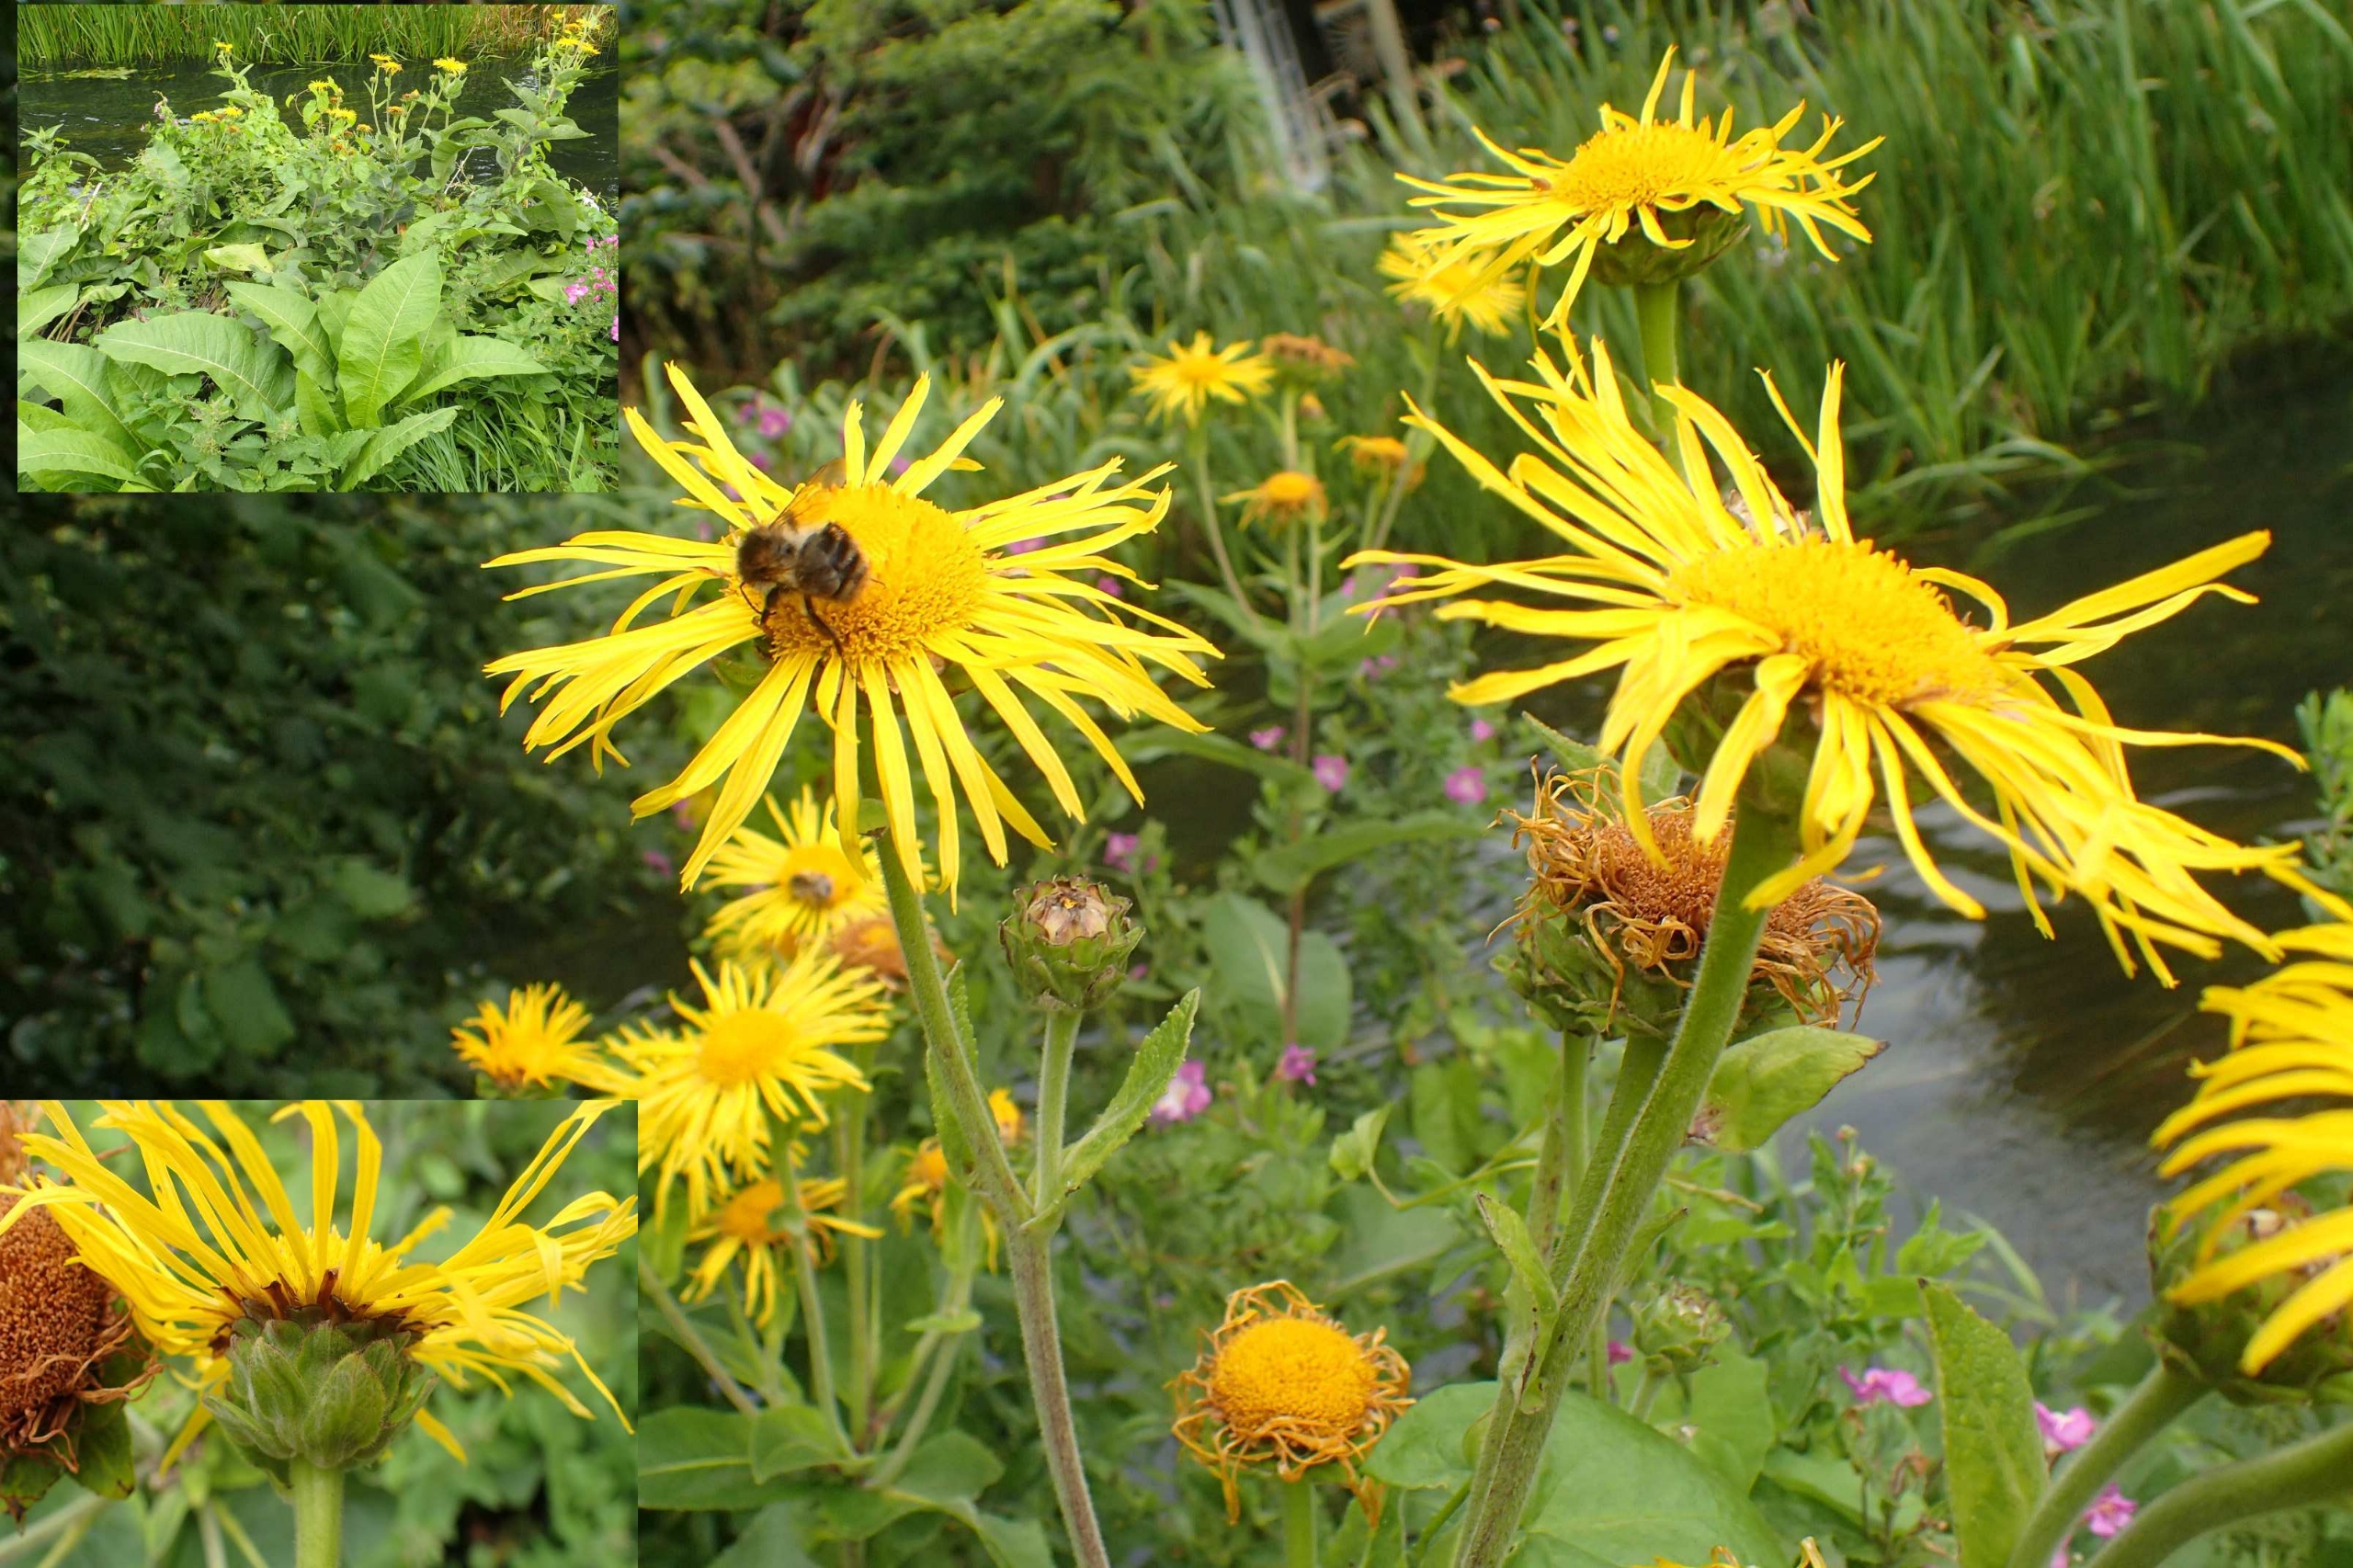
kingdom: Plantae
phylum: Tracheophyta
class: Magnoliopsida
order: Asterales
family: Asteraceae
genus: Inula
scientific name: Inula helenium
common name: Læge-alant
